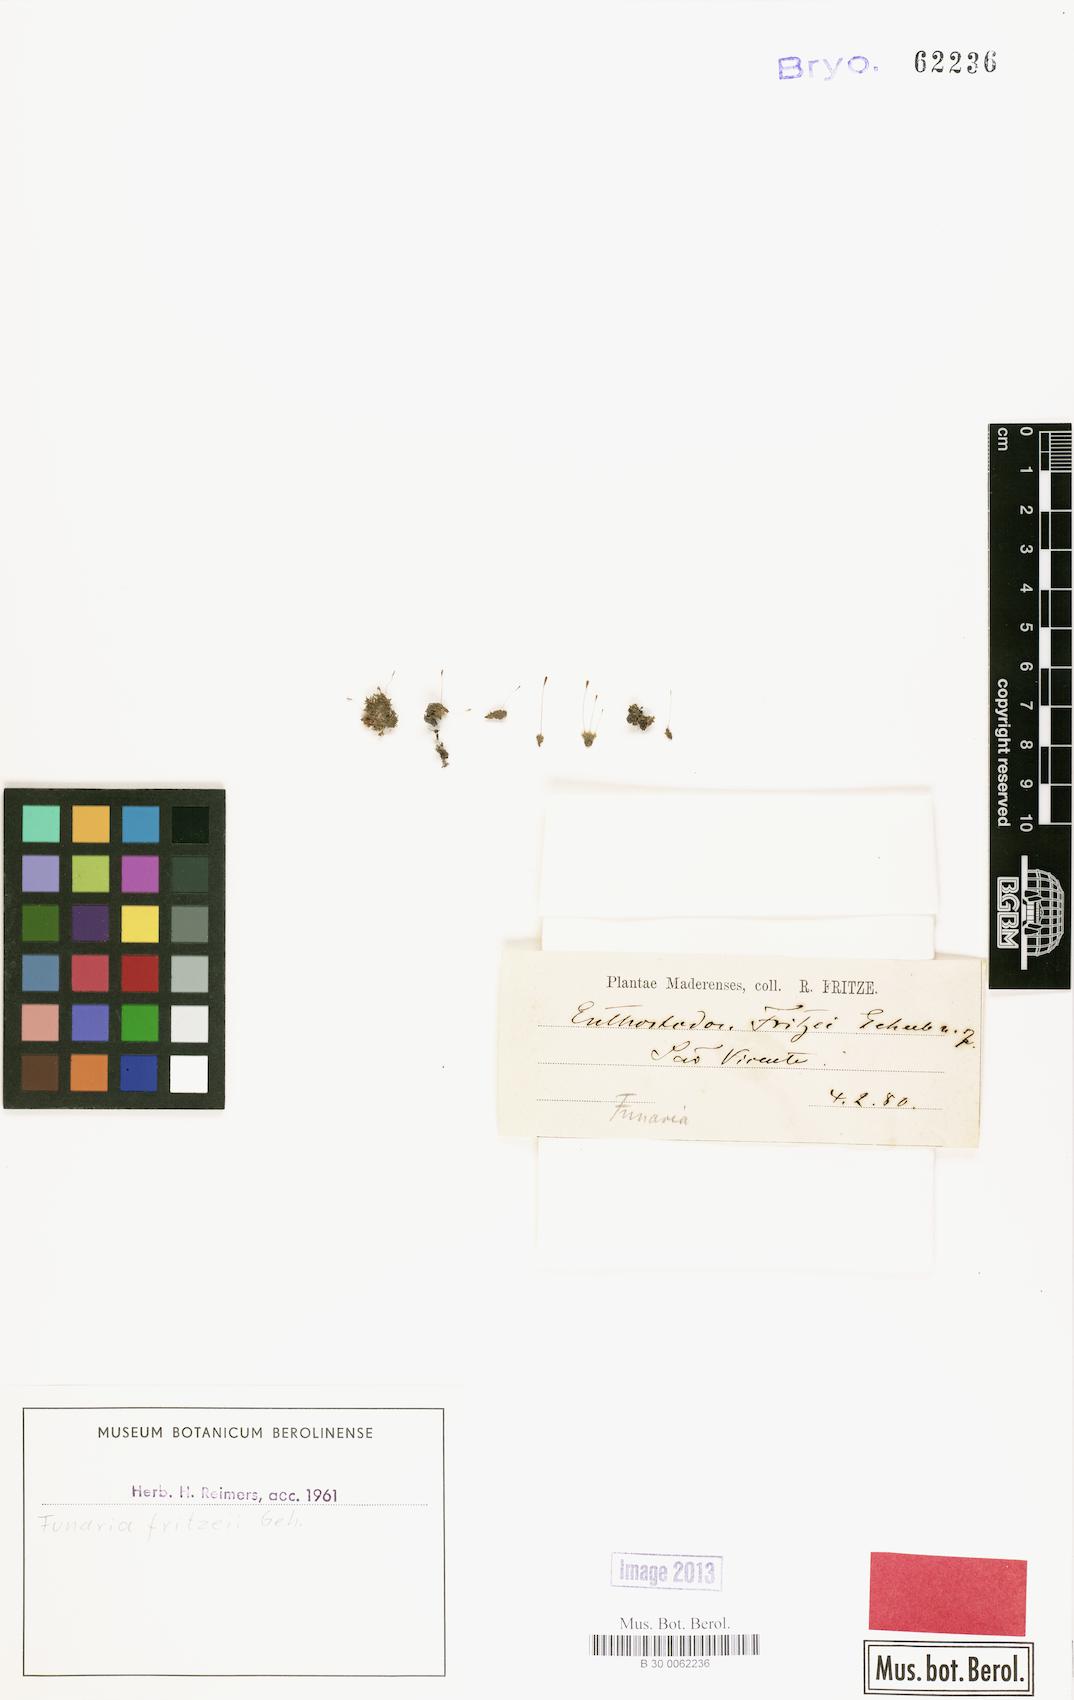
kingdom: Plantae
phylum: Bryophyta
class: Bryopsida
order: Funariales
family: Funariaceae
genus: Funaria
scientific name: Funaria fritzei
